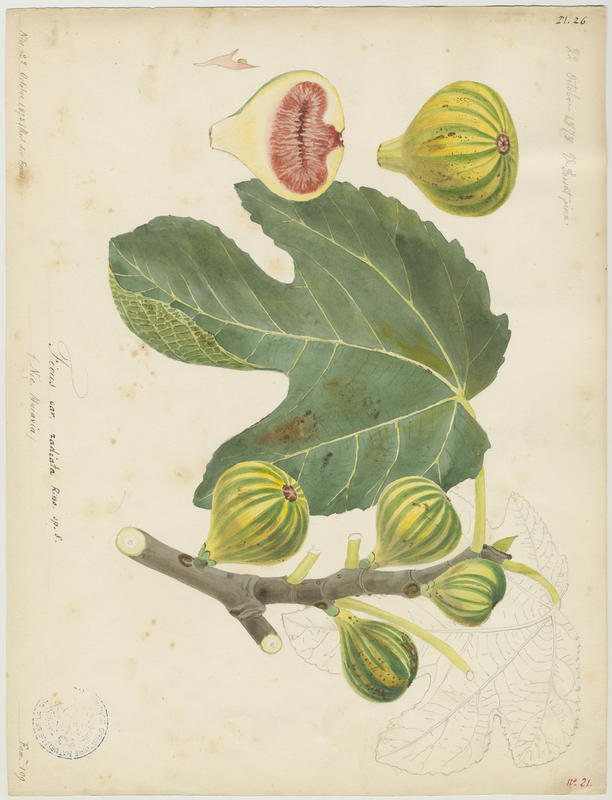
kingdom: Plantae
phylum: Tracheophyta
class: Magnoliopsida
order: Rosales
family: Moraceae
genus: Ficus
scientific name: Ficus carica
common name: Fig
